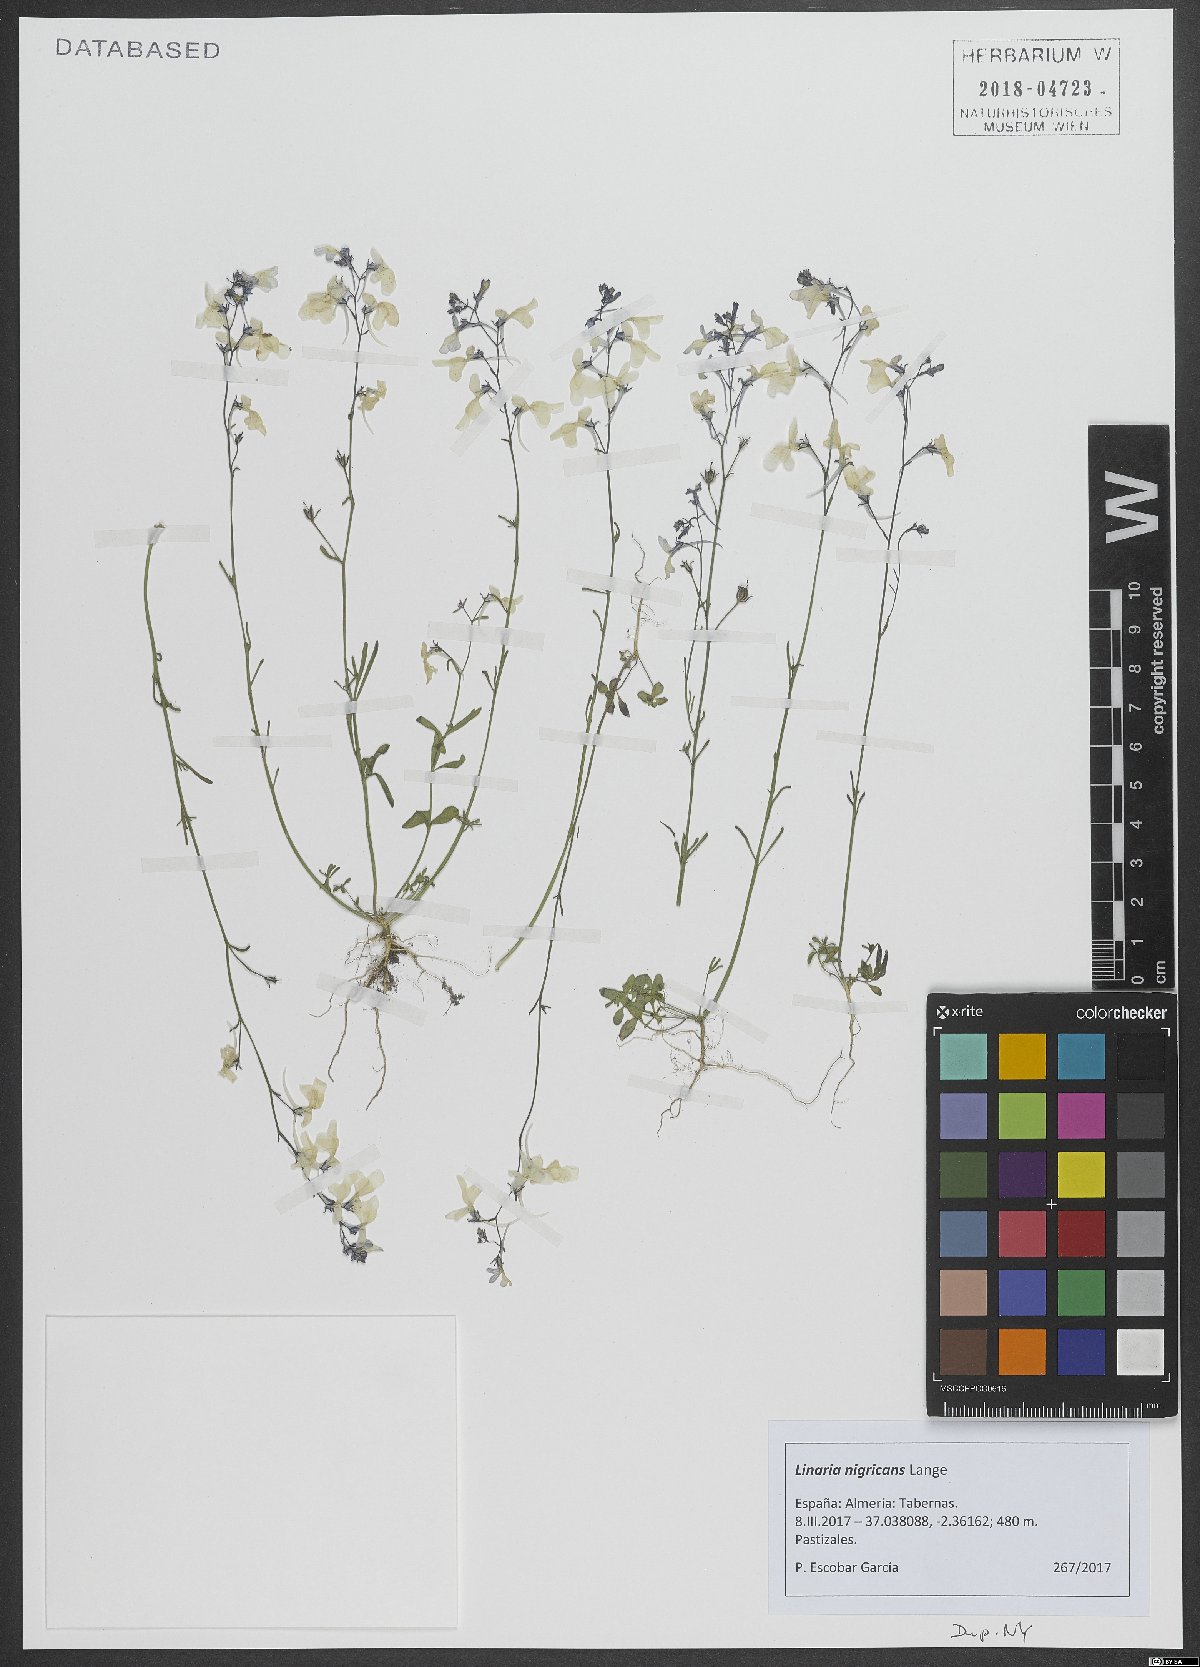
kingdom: Plantae
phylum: Tracheophyta
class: Magnoliopsida
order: Lamiales
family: Plantaginaceae
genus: Linaria
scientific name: Linaria nigricans
